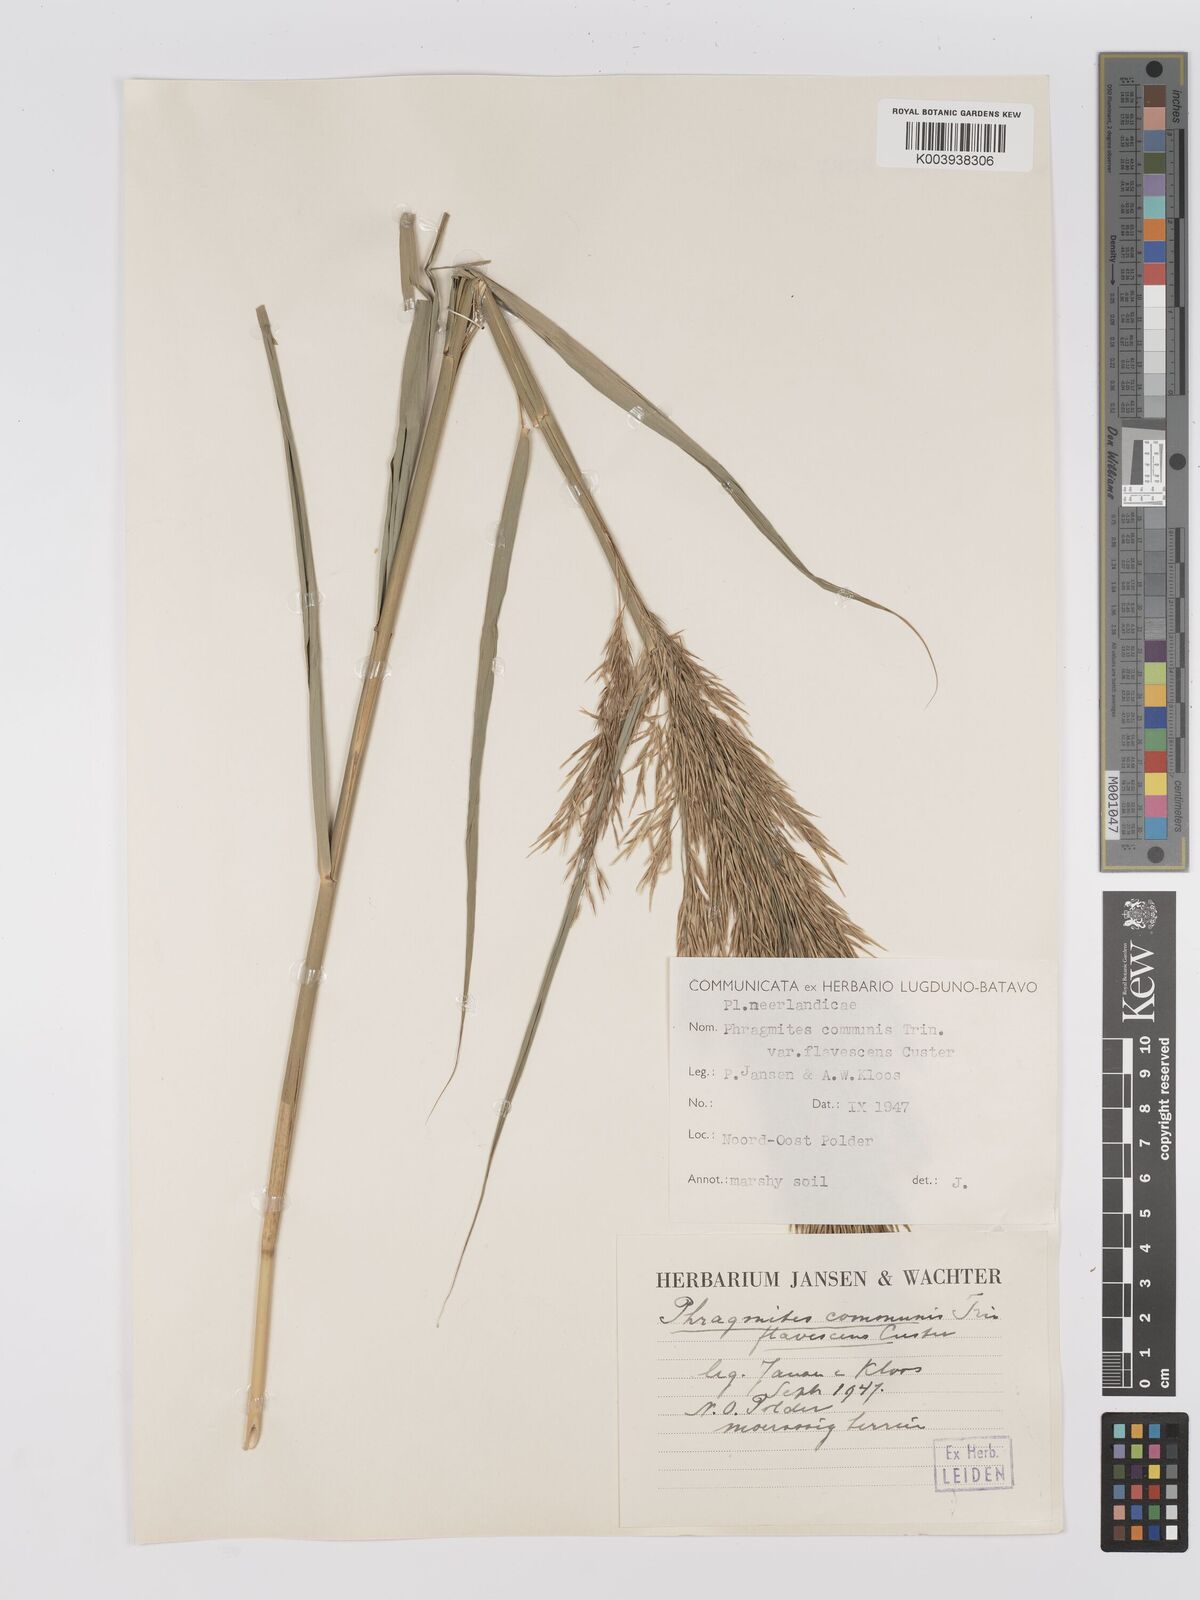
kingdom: Plantae
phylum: Tracheophyta
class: Liliopsida
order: Poales
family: Poaceae
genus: Phragmites
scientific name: Phragmites australis
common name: Common reed
